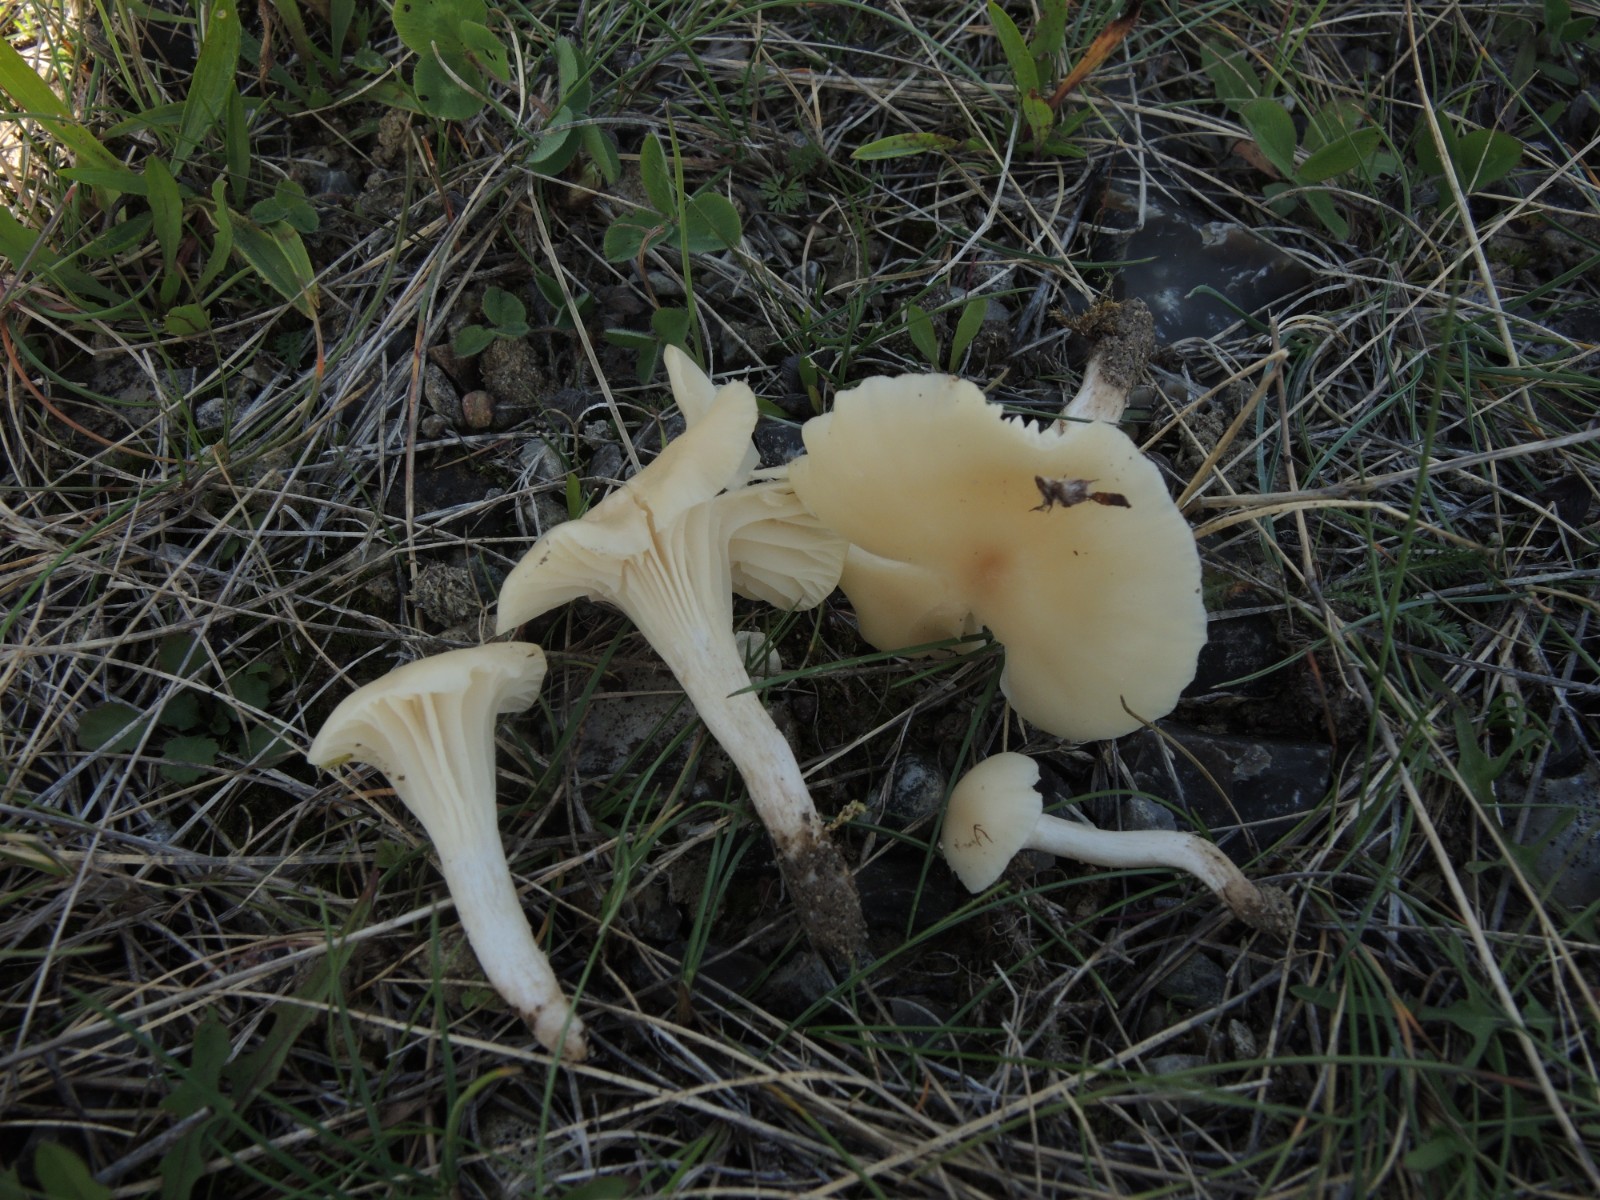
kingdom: Fungi
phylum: Basidiomycota
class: Agaricomycetes
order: Agaricales
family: Hygrophoraceae
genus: Cuphophyllus
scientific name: Cuphophyllus virgineus
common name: isabella-vokshat
